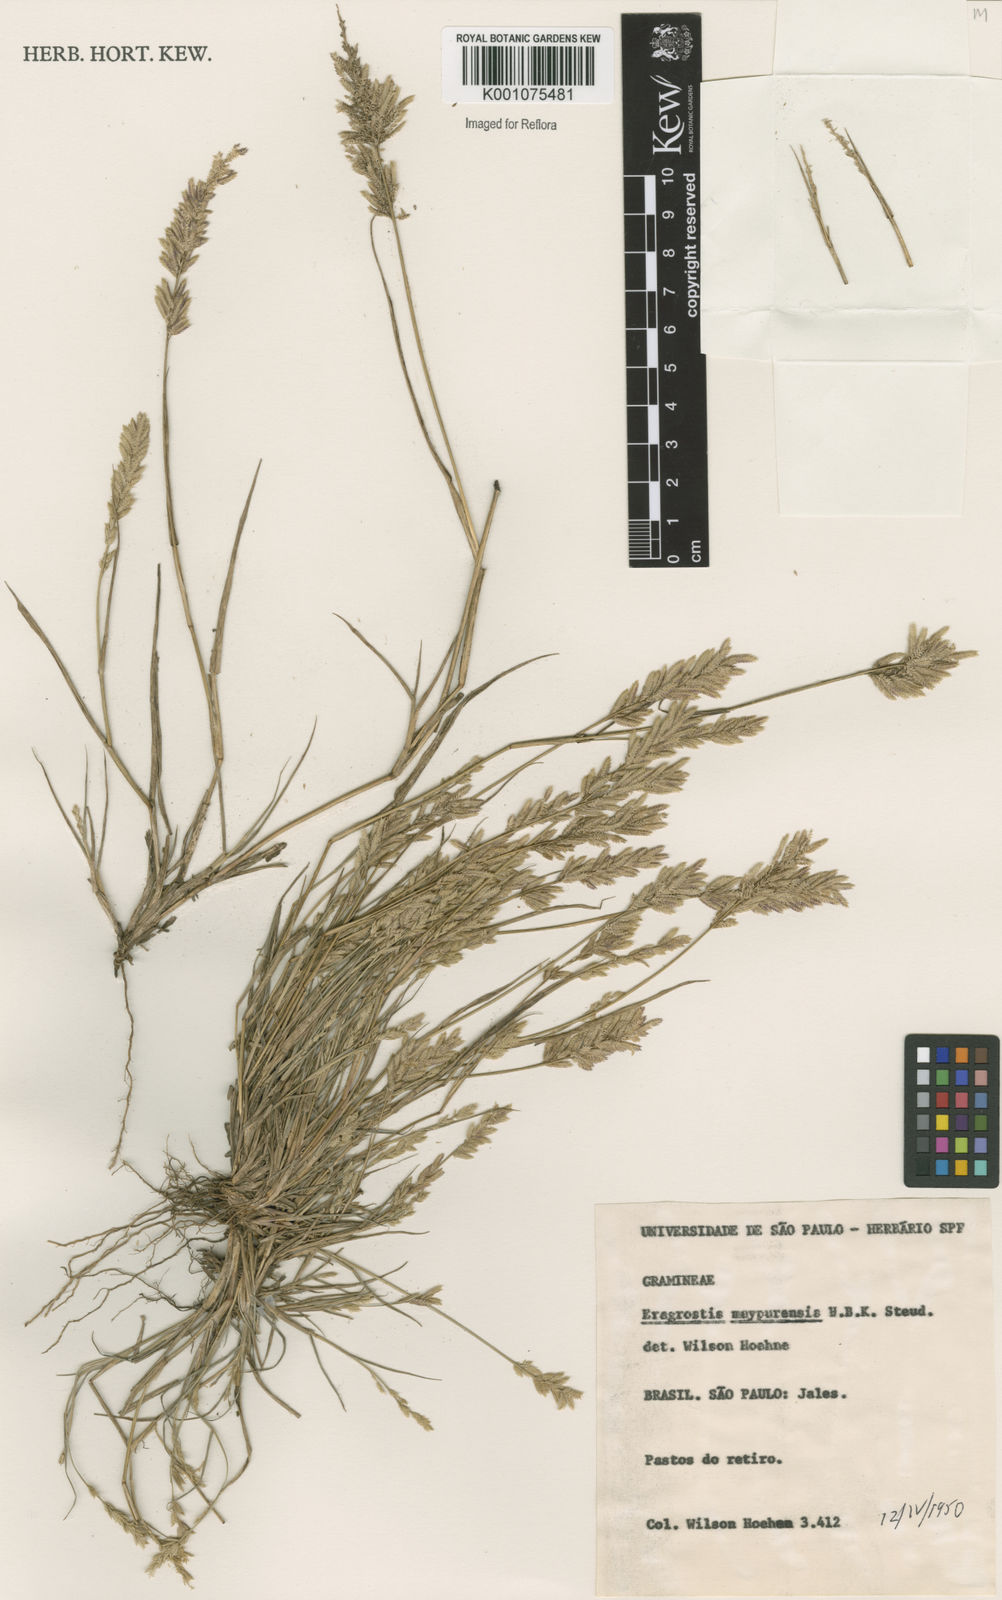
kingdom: Plantae
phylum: Tracheophyta
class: Liliopsida
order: Poales
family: Poaceae
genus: Eragrostis
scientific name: Eragrostis maypurensis
